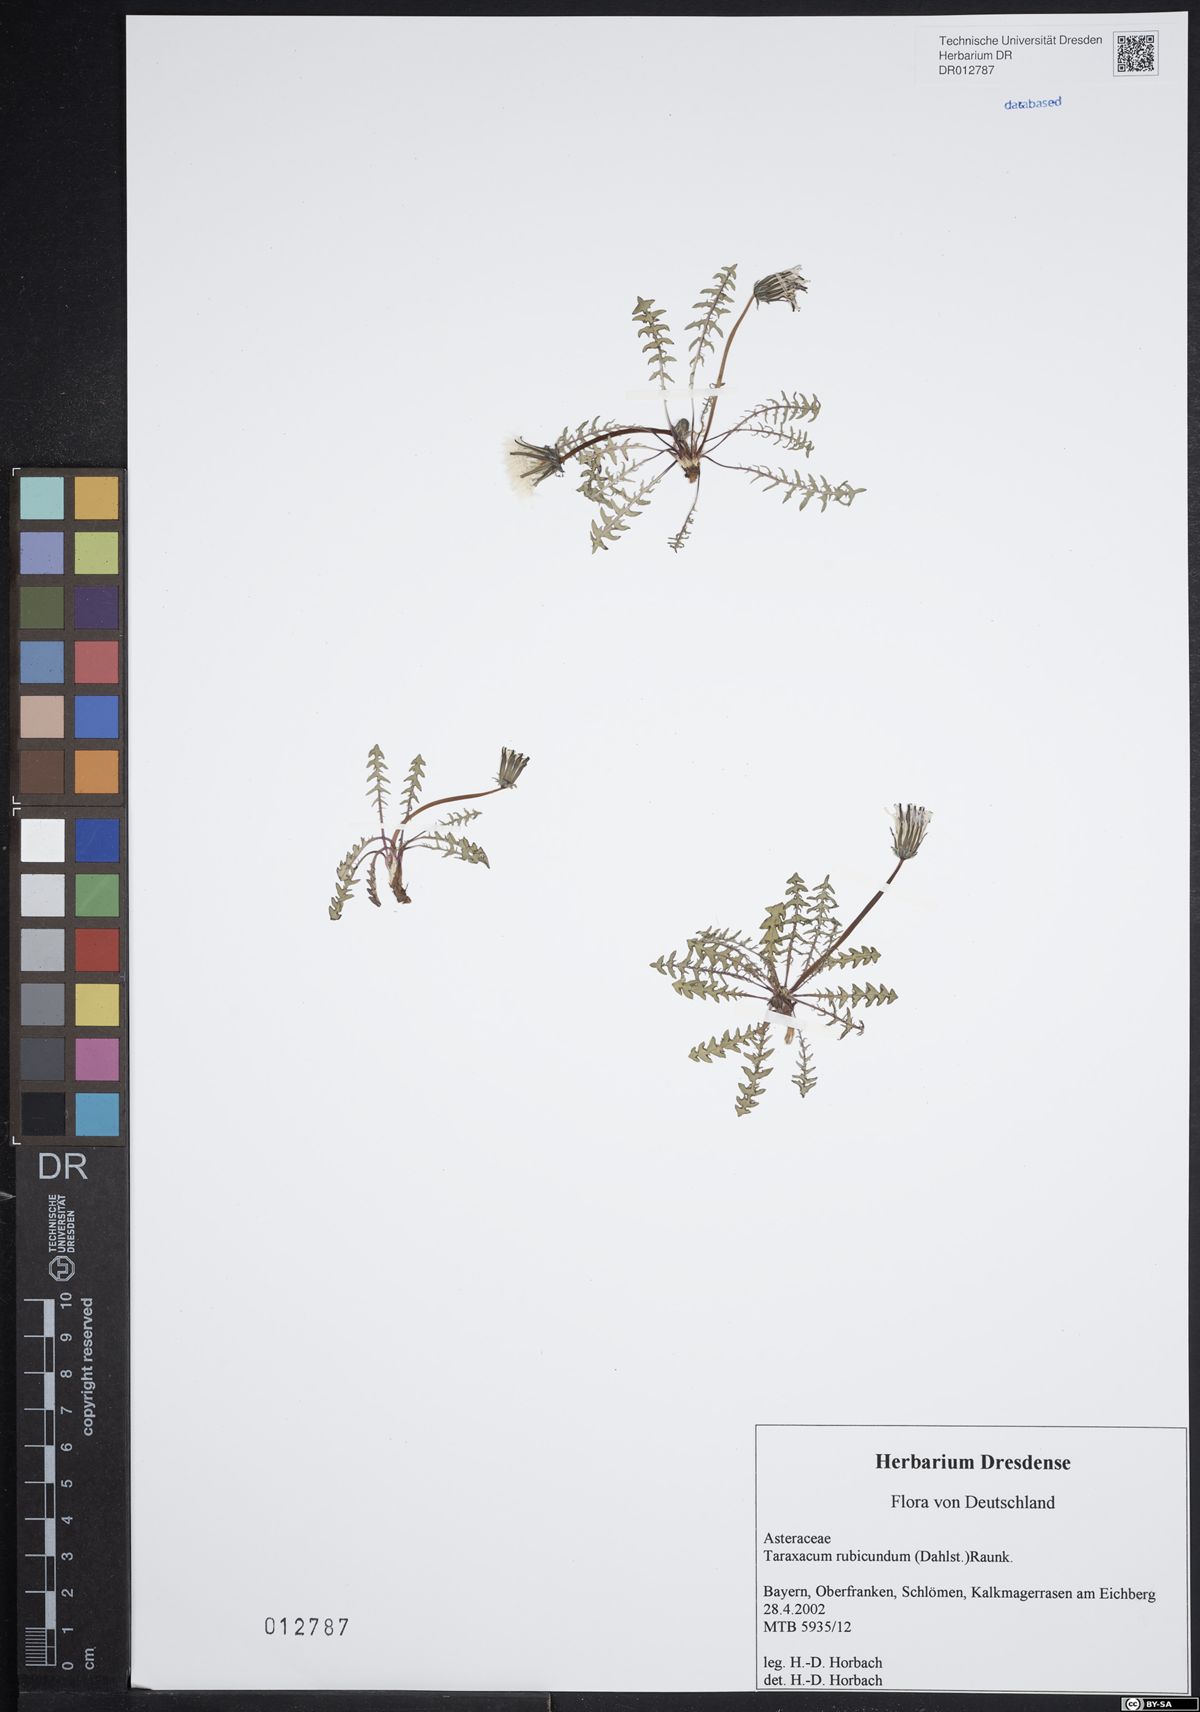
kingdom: Plantae
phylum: Tracheophyta
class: Magnoliopsida
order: Asterales
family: Asteraceae
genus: Taraxacum
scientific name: Taraxacum rubicundum
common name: Ruddy dandelion
